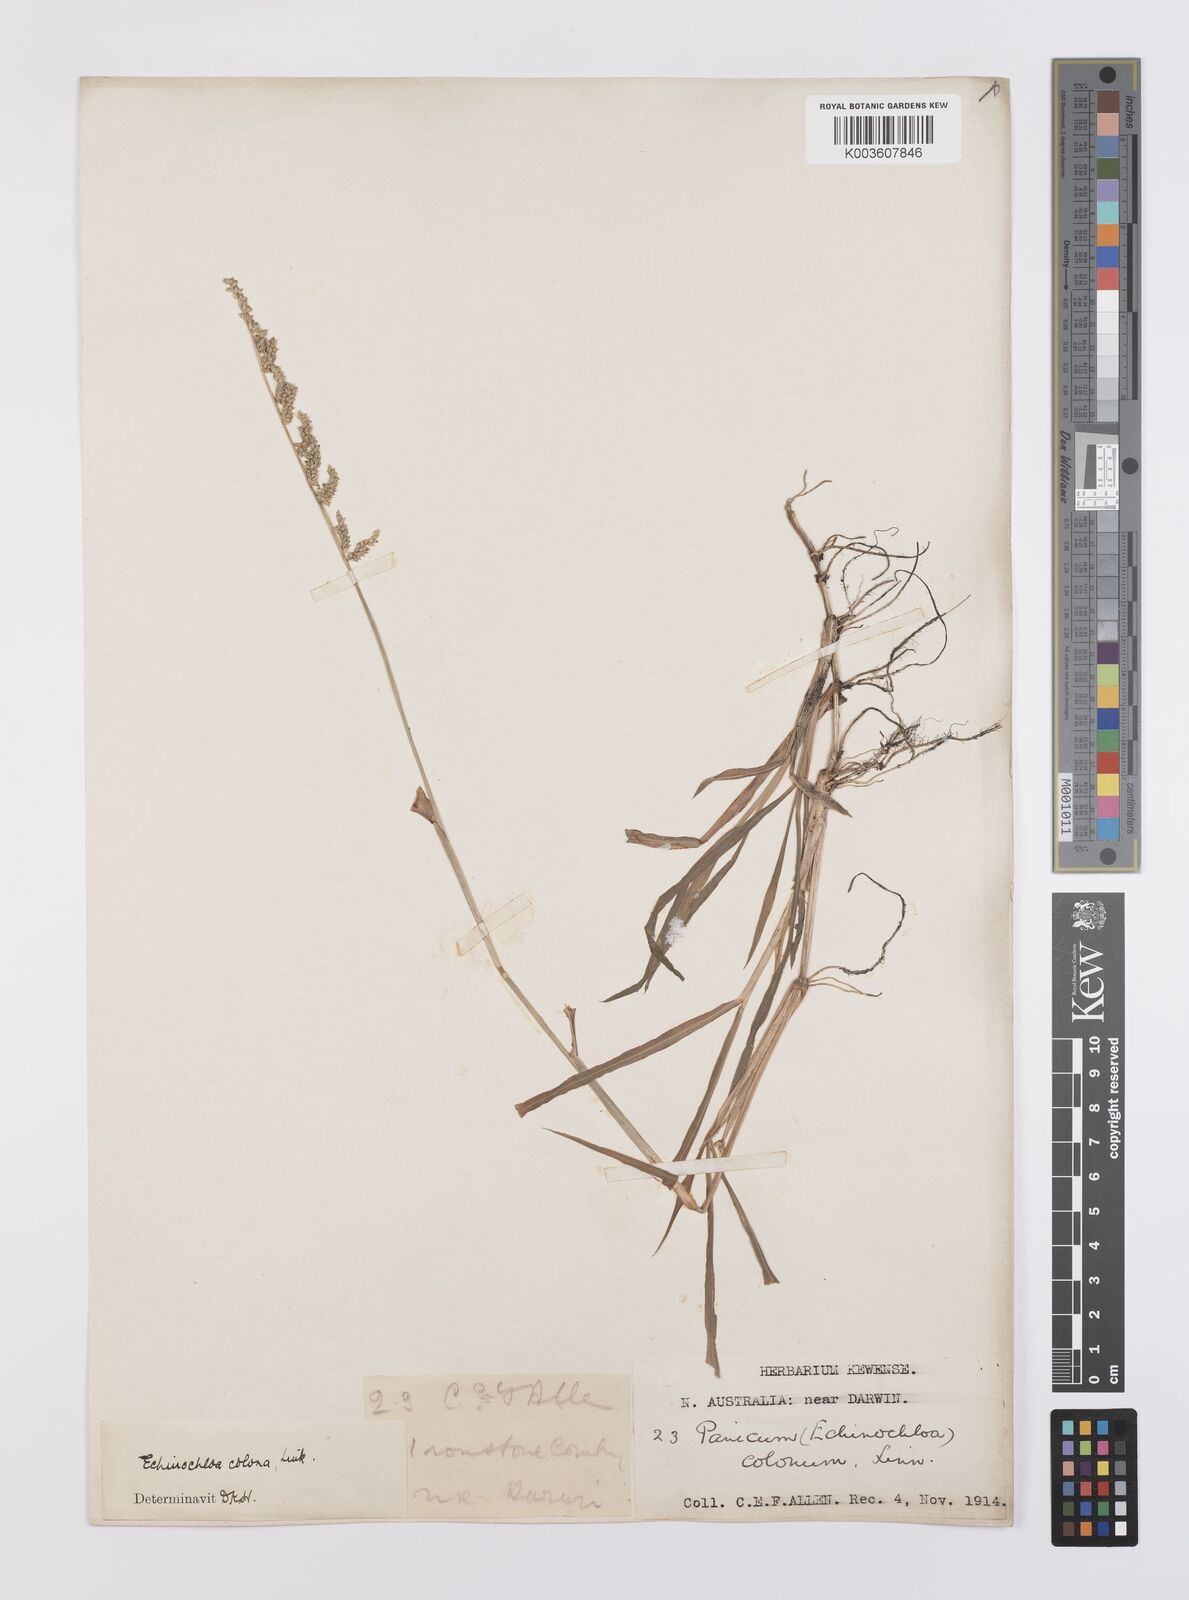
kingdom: Plantae
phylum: Tracheophyta
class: Liliopsida
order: Poales
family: Poaceae
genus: Echinochloa
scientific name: Echinochloa colonum
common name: Jungle rice
